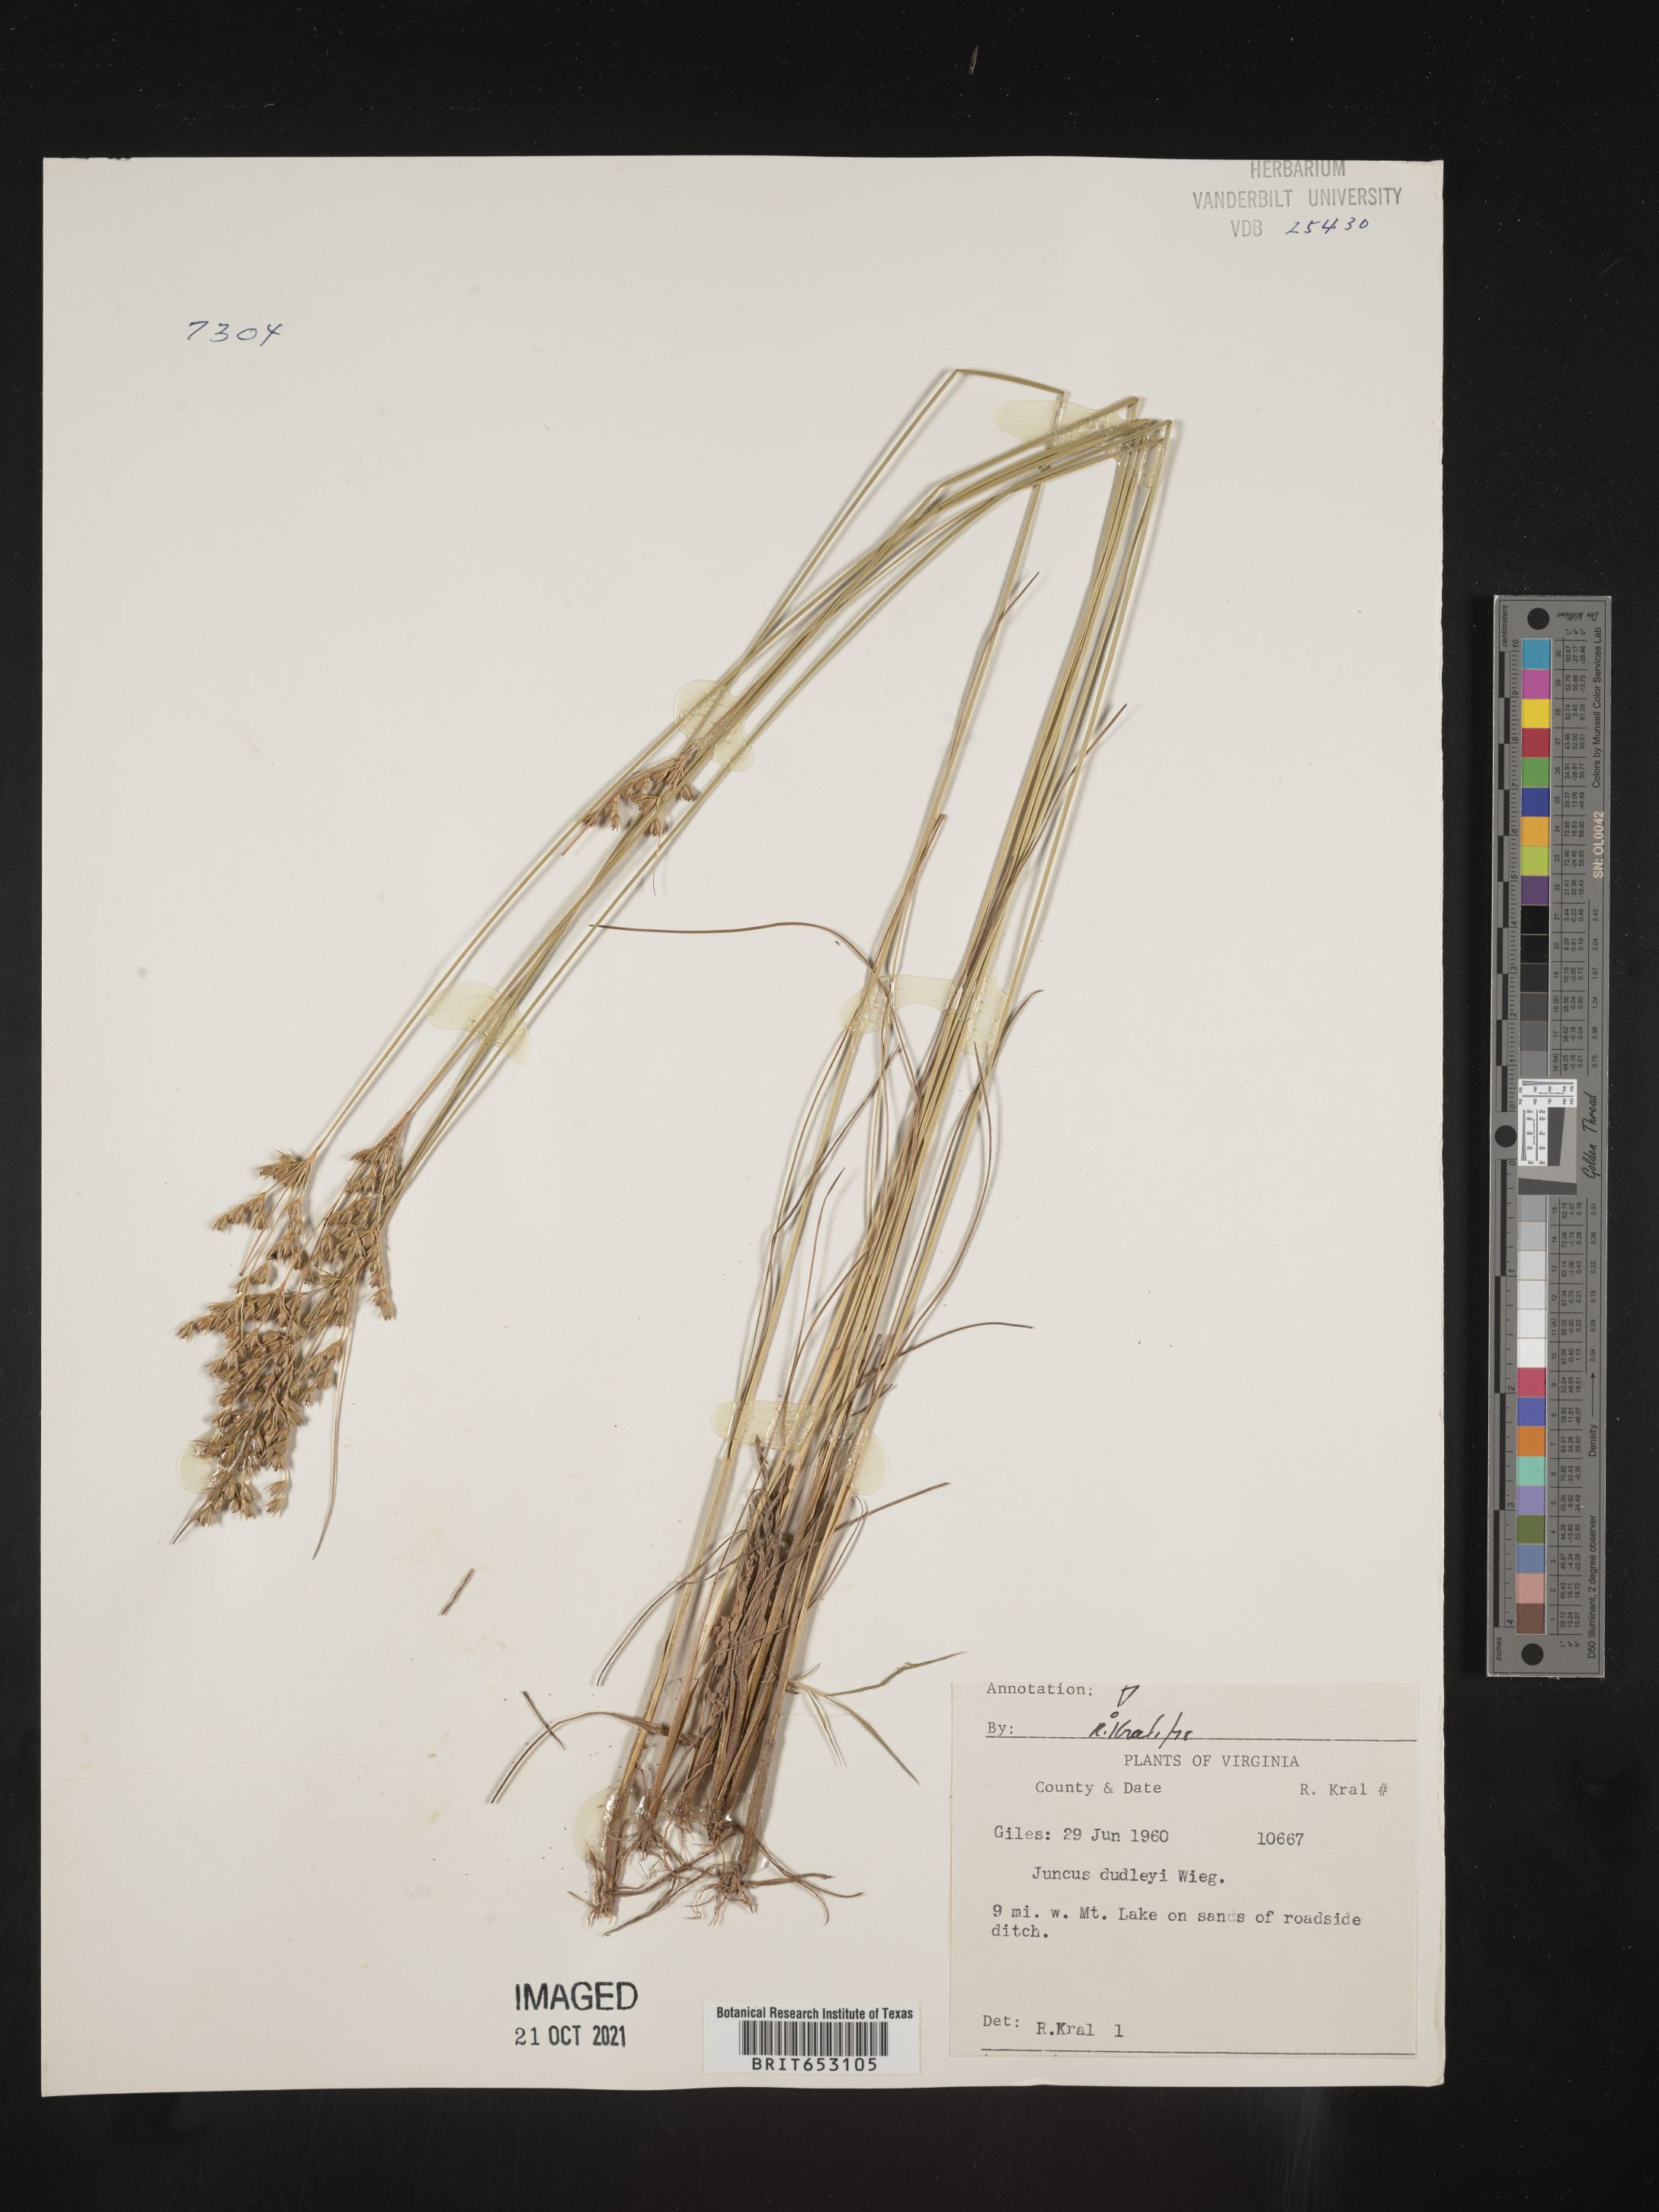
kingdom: Plantae
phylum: Tracheophyta
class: Liliopsida
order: Poales
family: Juncaceae
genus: Juncus
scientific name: Juncus dudleyi
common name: Dudley's rush
